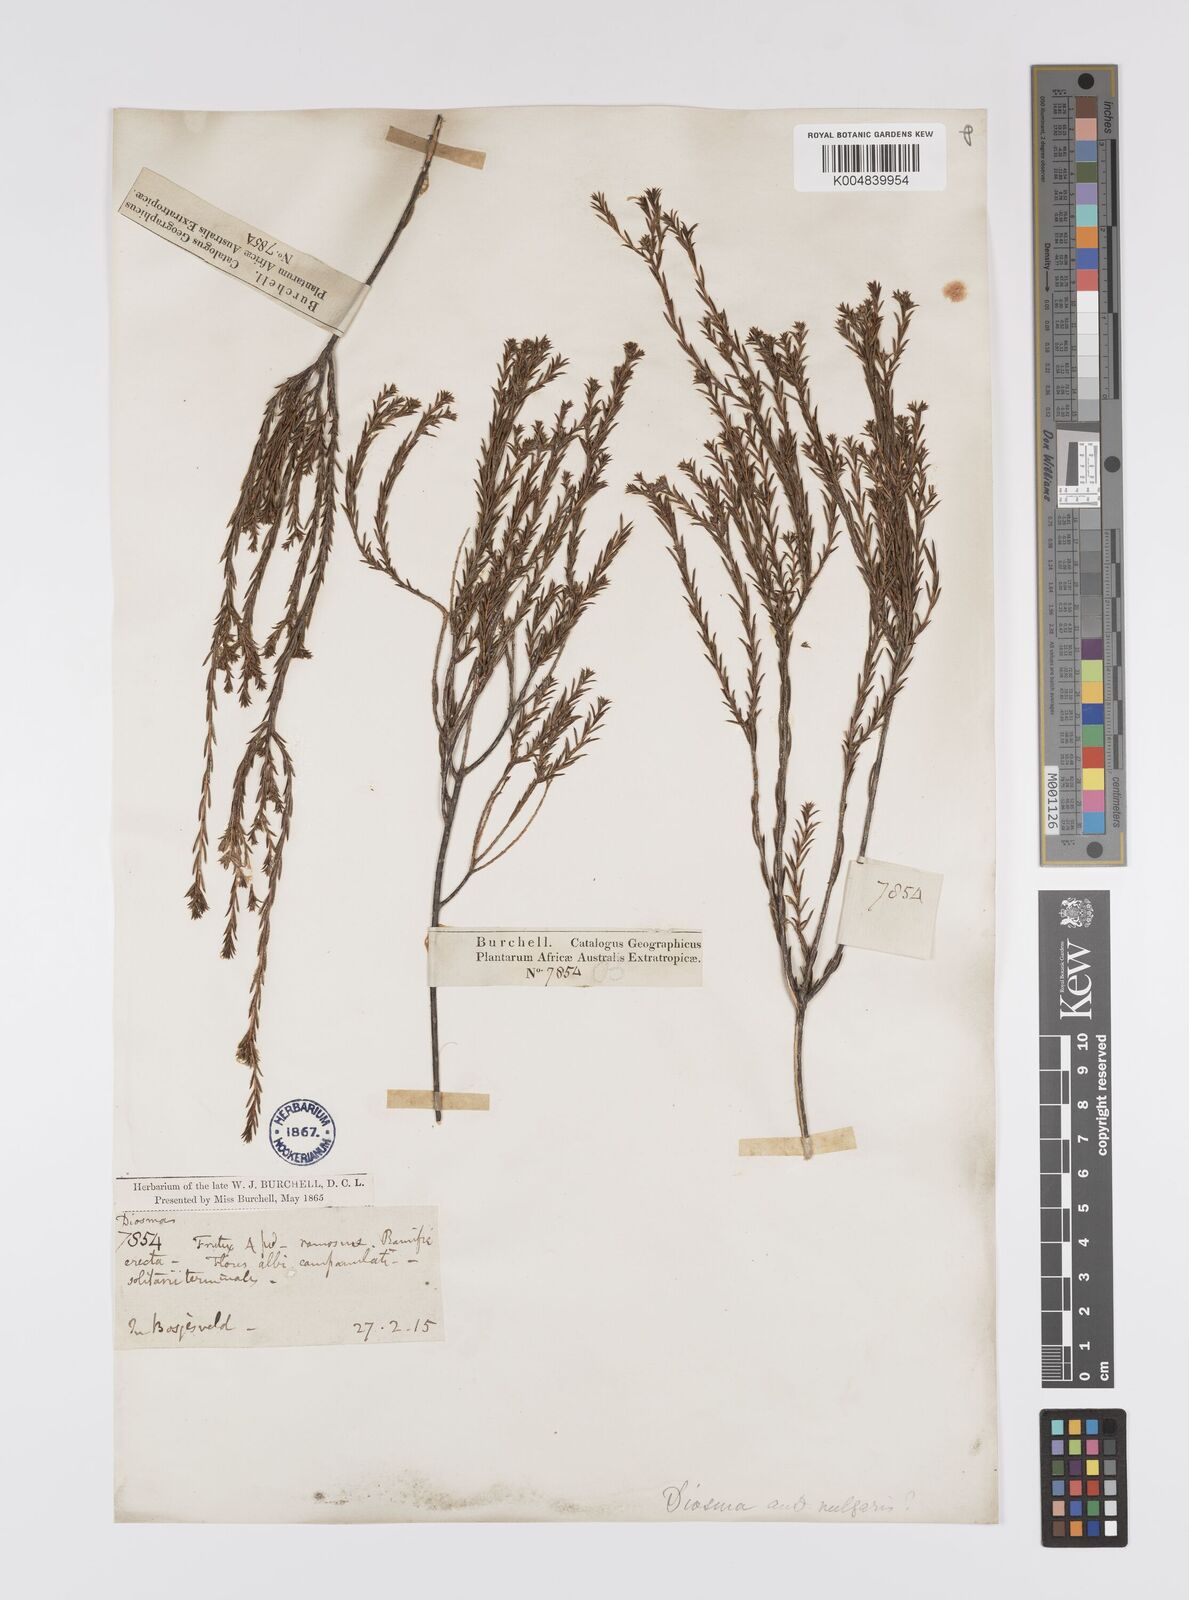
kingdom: Plantae
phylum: Tracheophyta
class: Magnoliopsida
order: Sapindales
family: Rutaceae
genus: Diosma
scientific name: Diosma acmaeophylla
